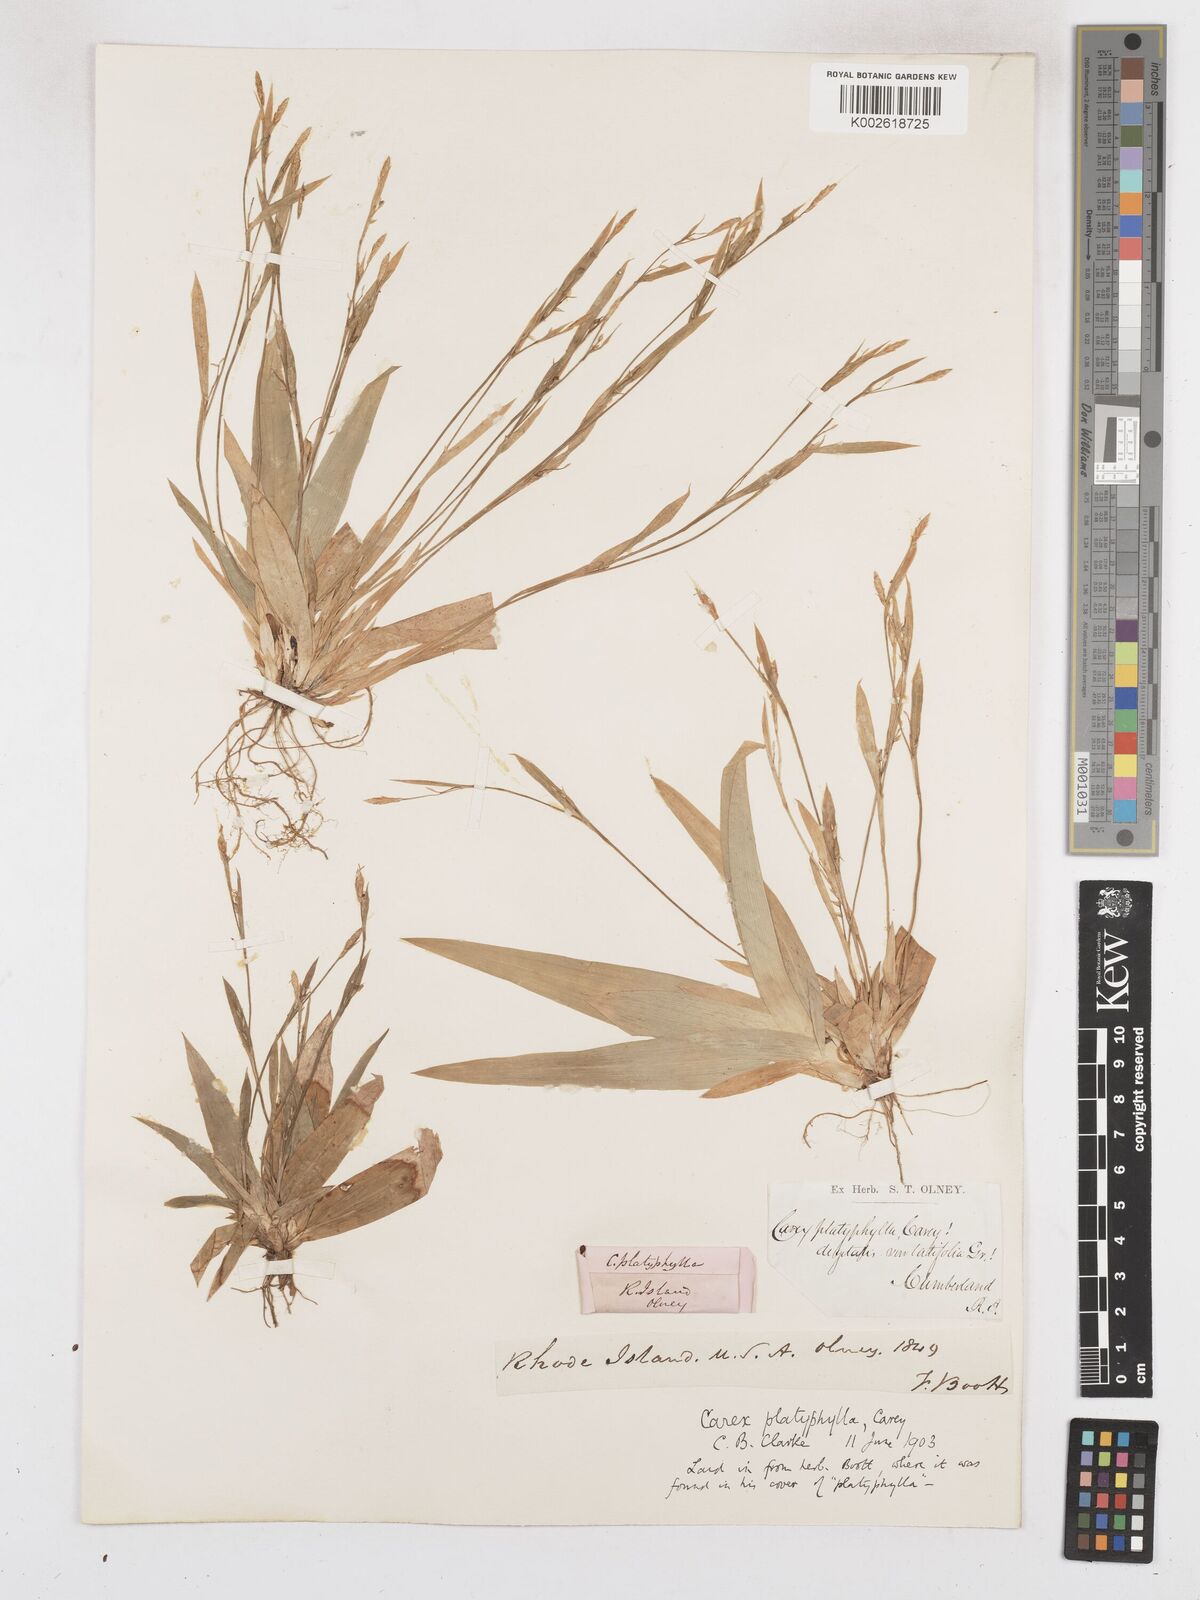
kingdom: Plantae
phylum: Tracheophyta
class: Liliopsida
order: Poales
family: Cyperaceae
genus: Carex
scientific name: Carex platyphylla
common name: Broad-leaved sedge
